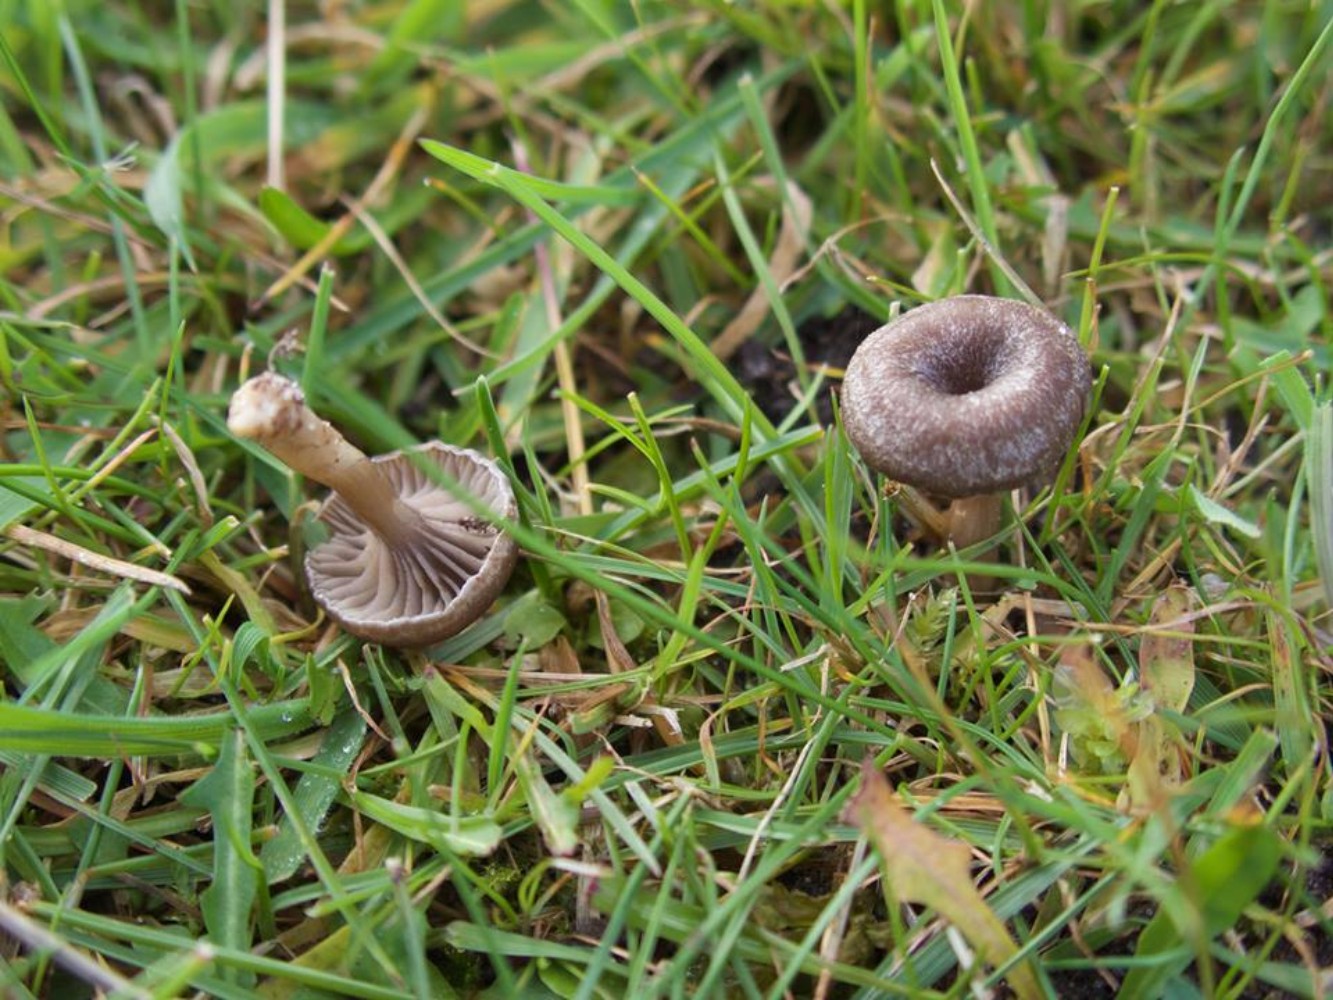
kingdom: Fungi
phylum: Basidiomycota
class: Agaricomycetes
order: Agaricales
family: Entolomataceae
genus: Entoloma
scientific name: Entoloma undatum
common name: bæltet rødblad
